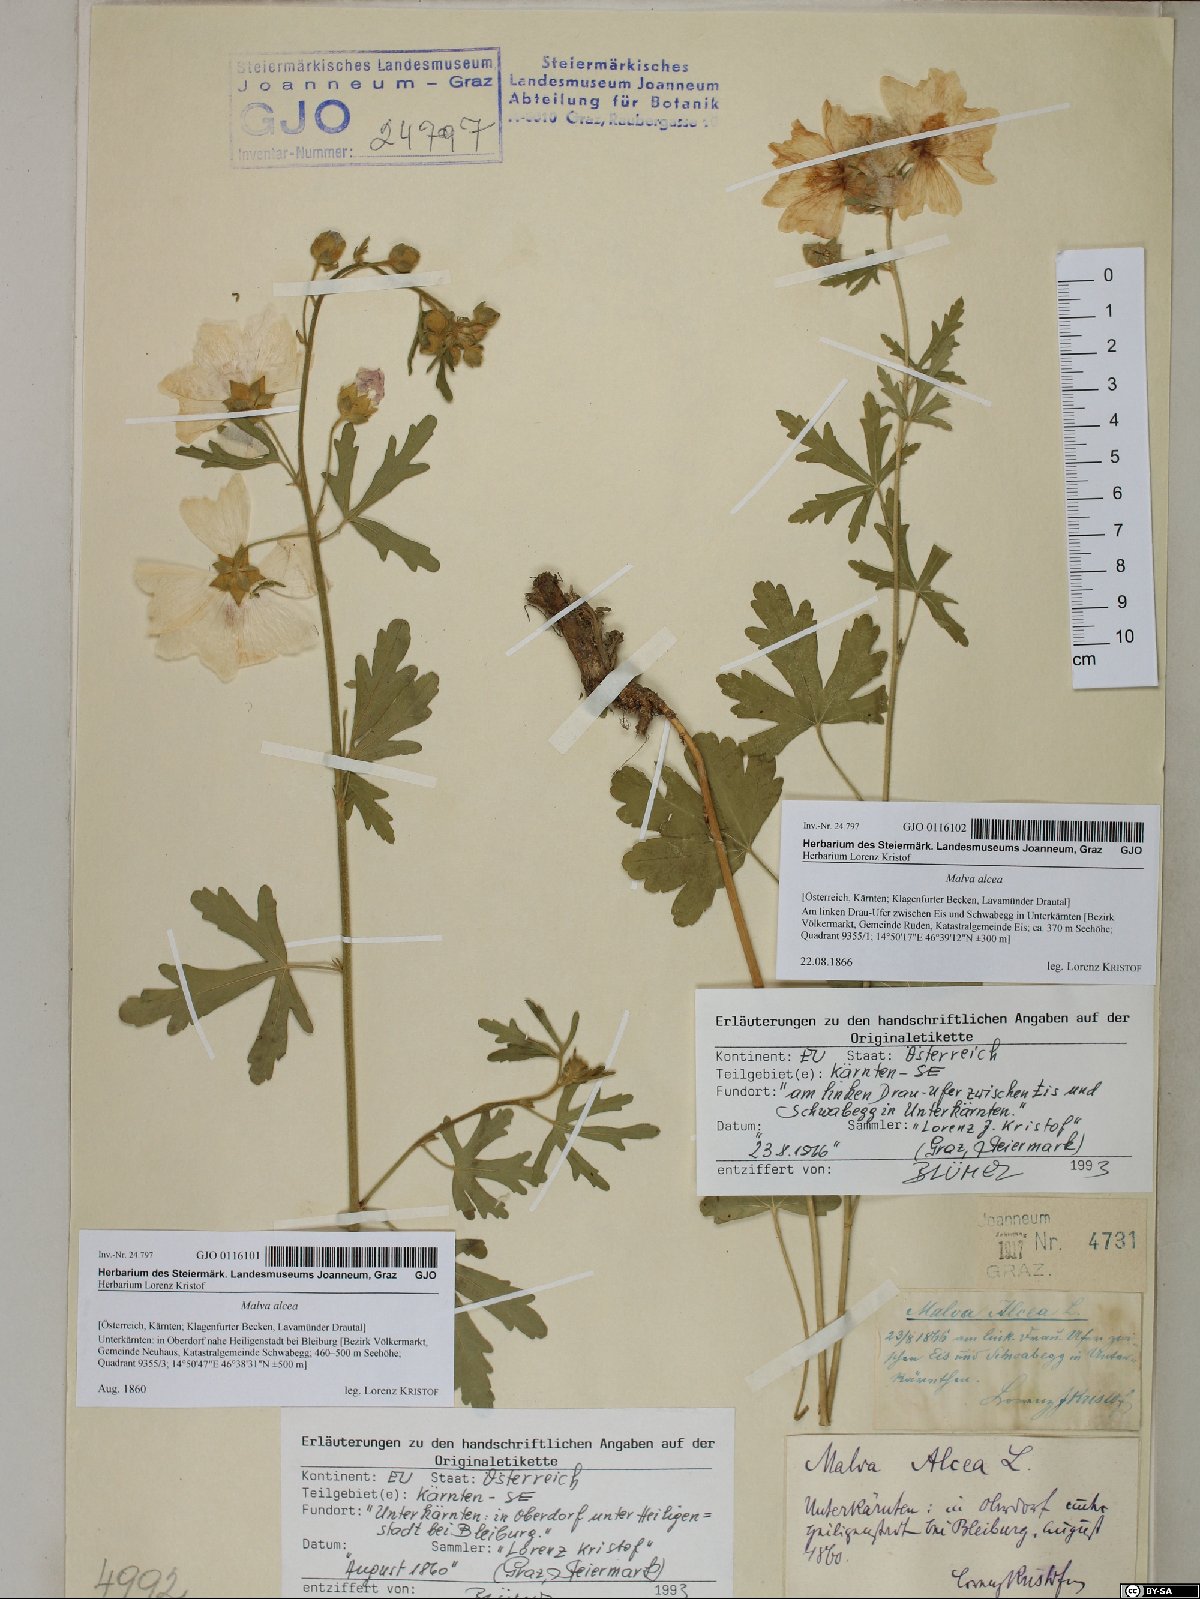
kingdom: Plantae
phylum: Tracheophyta
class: Magnoliopsida
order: Malvales
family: Malvaceae
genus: Malva
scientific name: Malva alcea
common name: Greater musk-mallow
